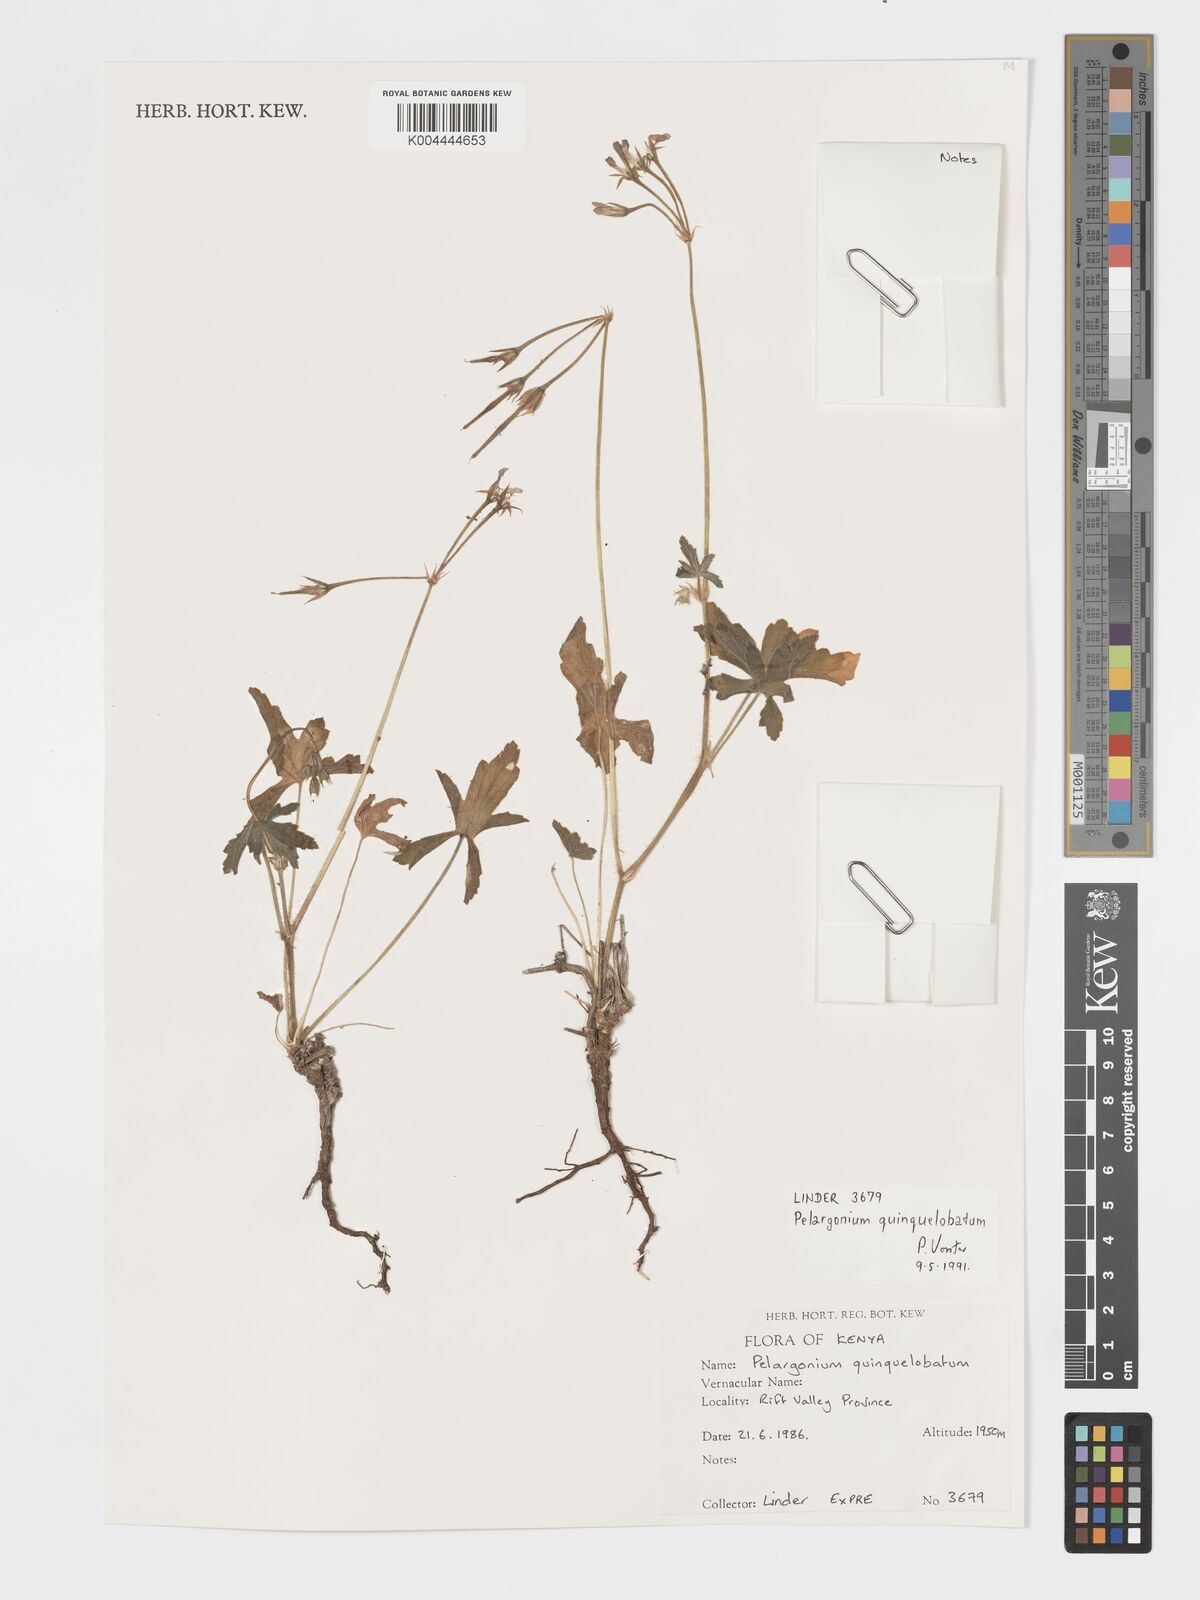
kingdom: Plantae
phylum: Tracheophyta
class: Magnoliopsida
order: Geraniales
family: Geraniaceae
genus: Pelargonium
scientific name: Pelargonium quinquelobatum
